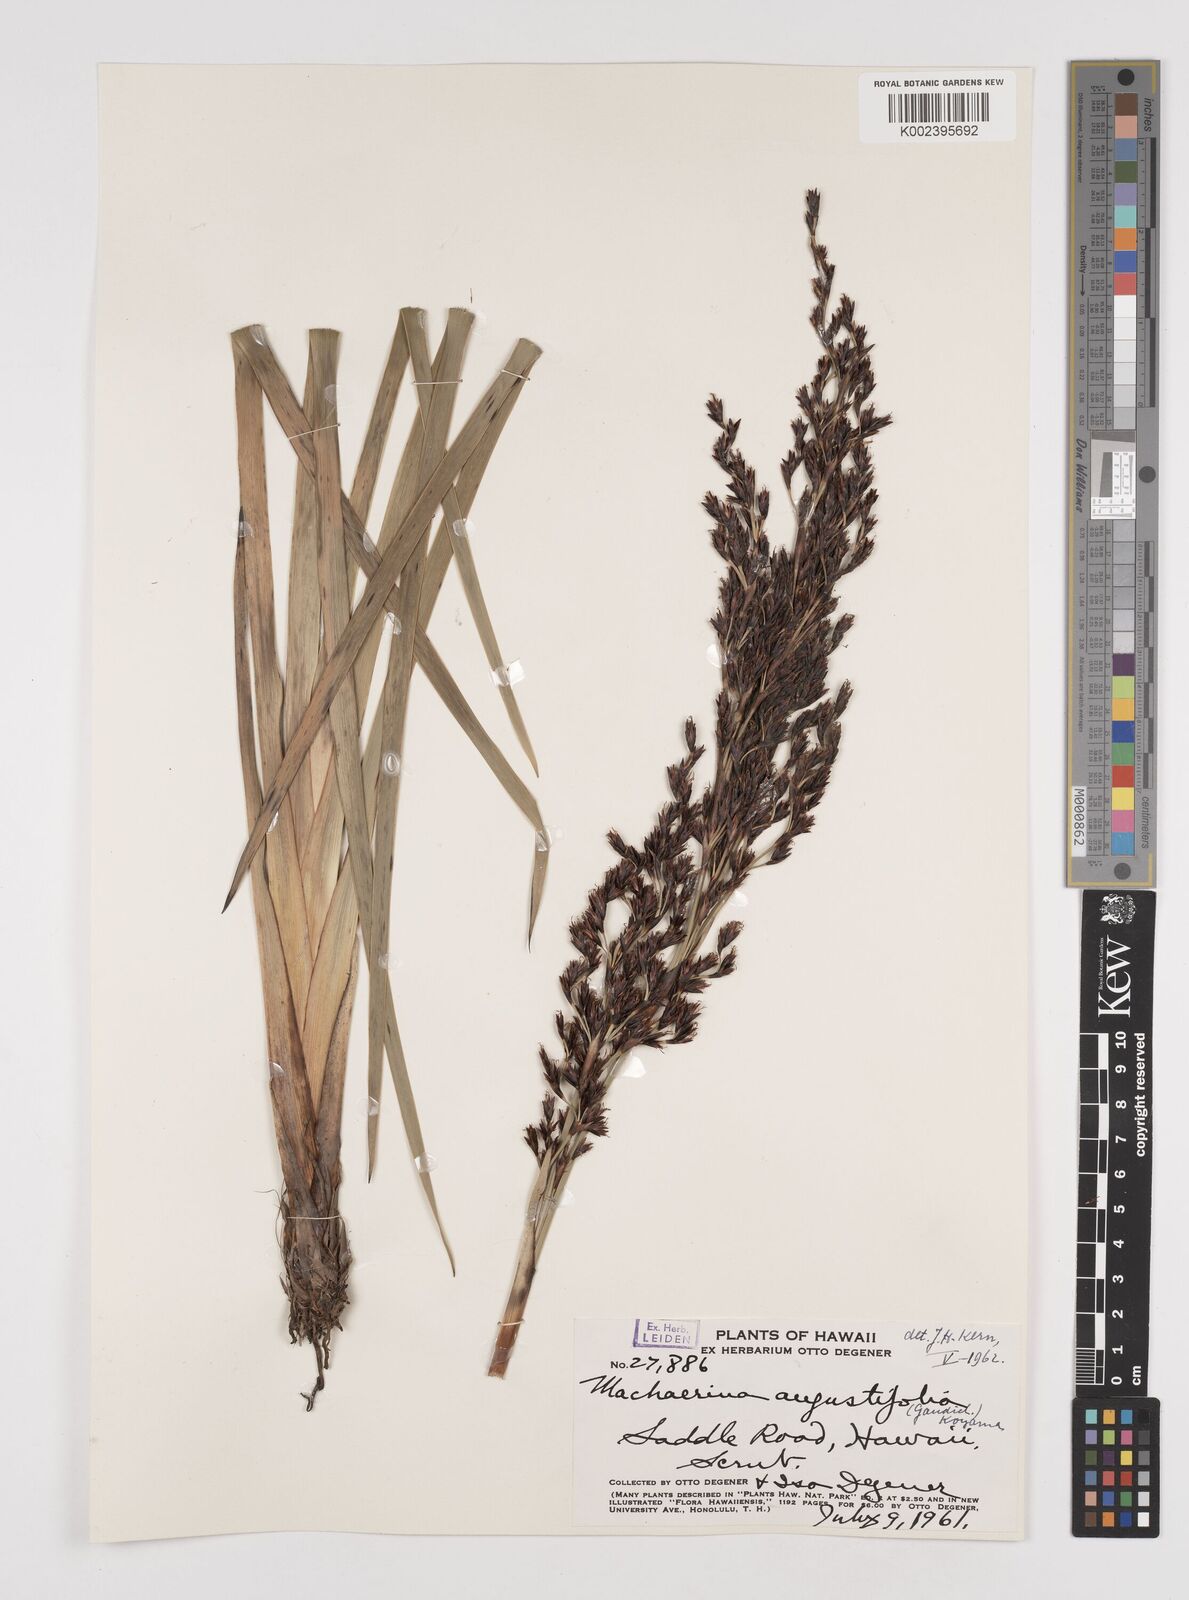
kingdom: Plantae
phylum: Tracheophyta
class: Liliopsida
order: Poales
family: Cyperaceae
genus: Machaerina
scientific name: Machaerina angustifolia
